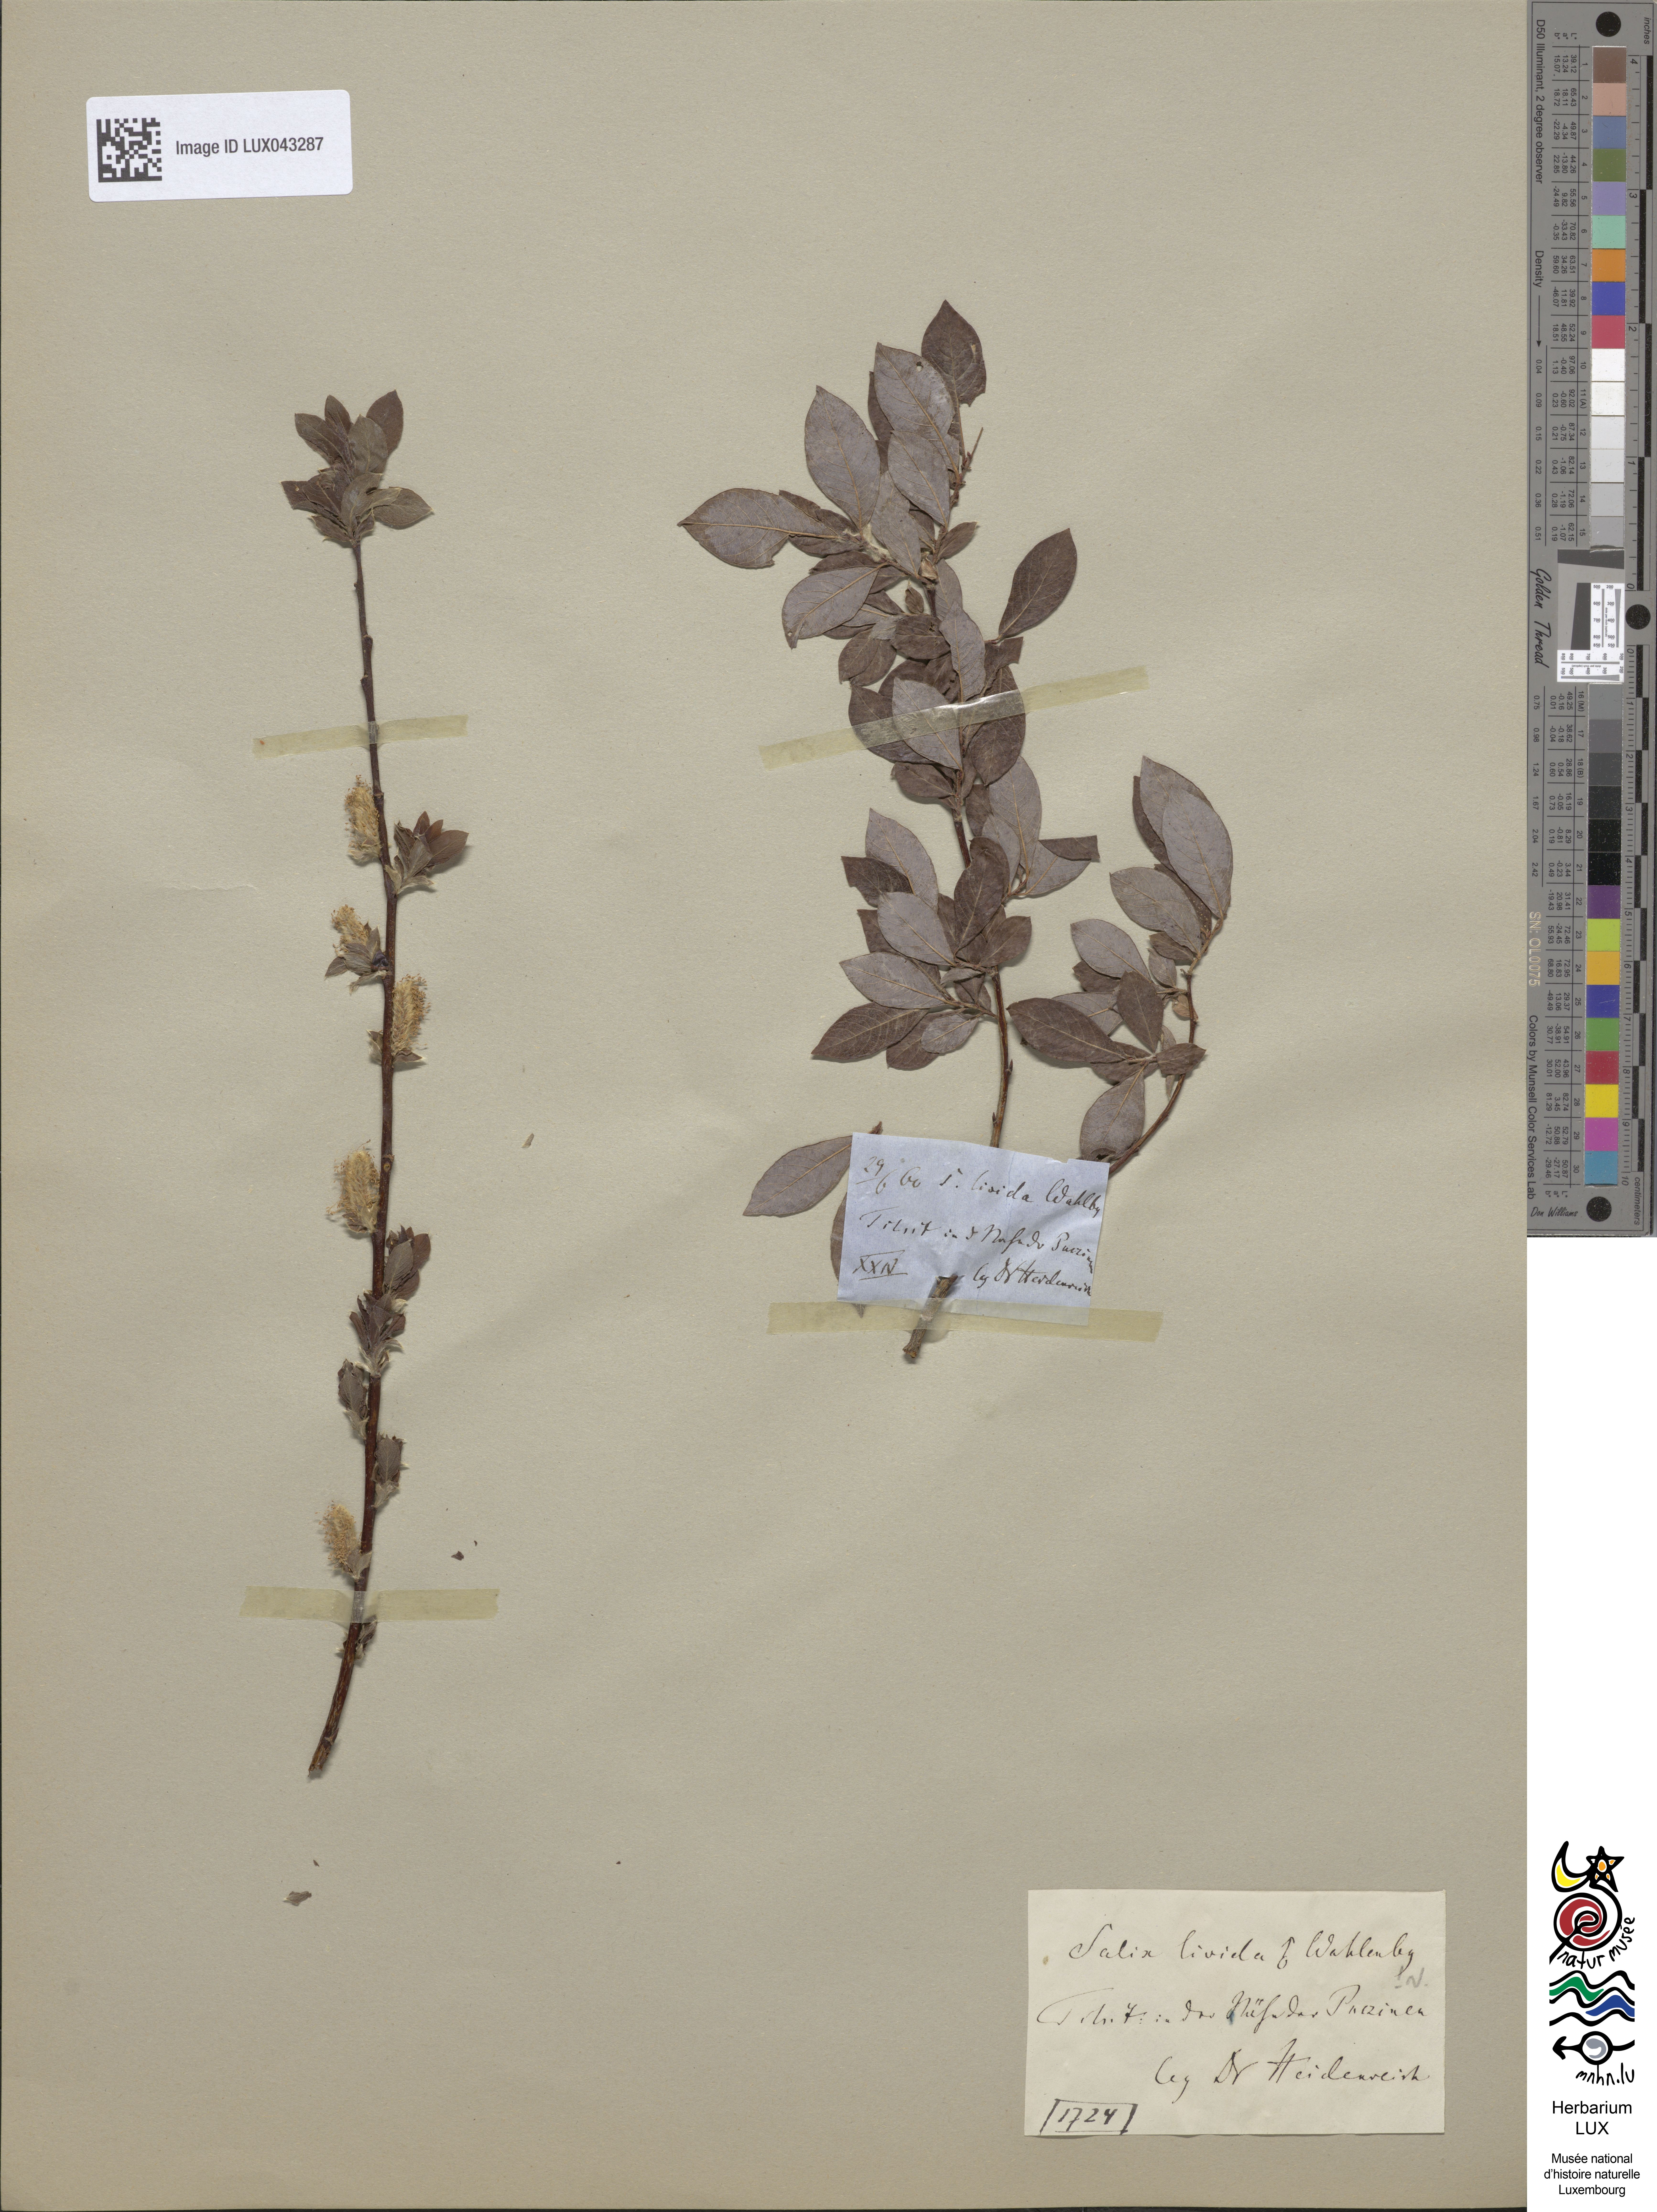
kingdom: Plantae
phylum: Tracheophyta
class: Magnoliopsida
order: Malpighiales
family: Salicaceae
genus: Salix
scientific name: Salix starkeana
